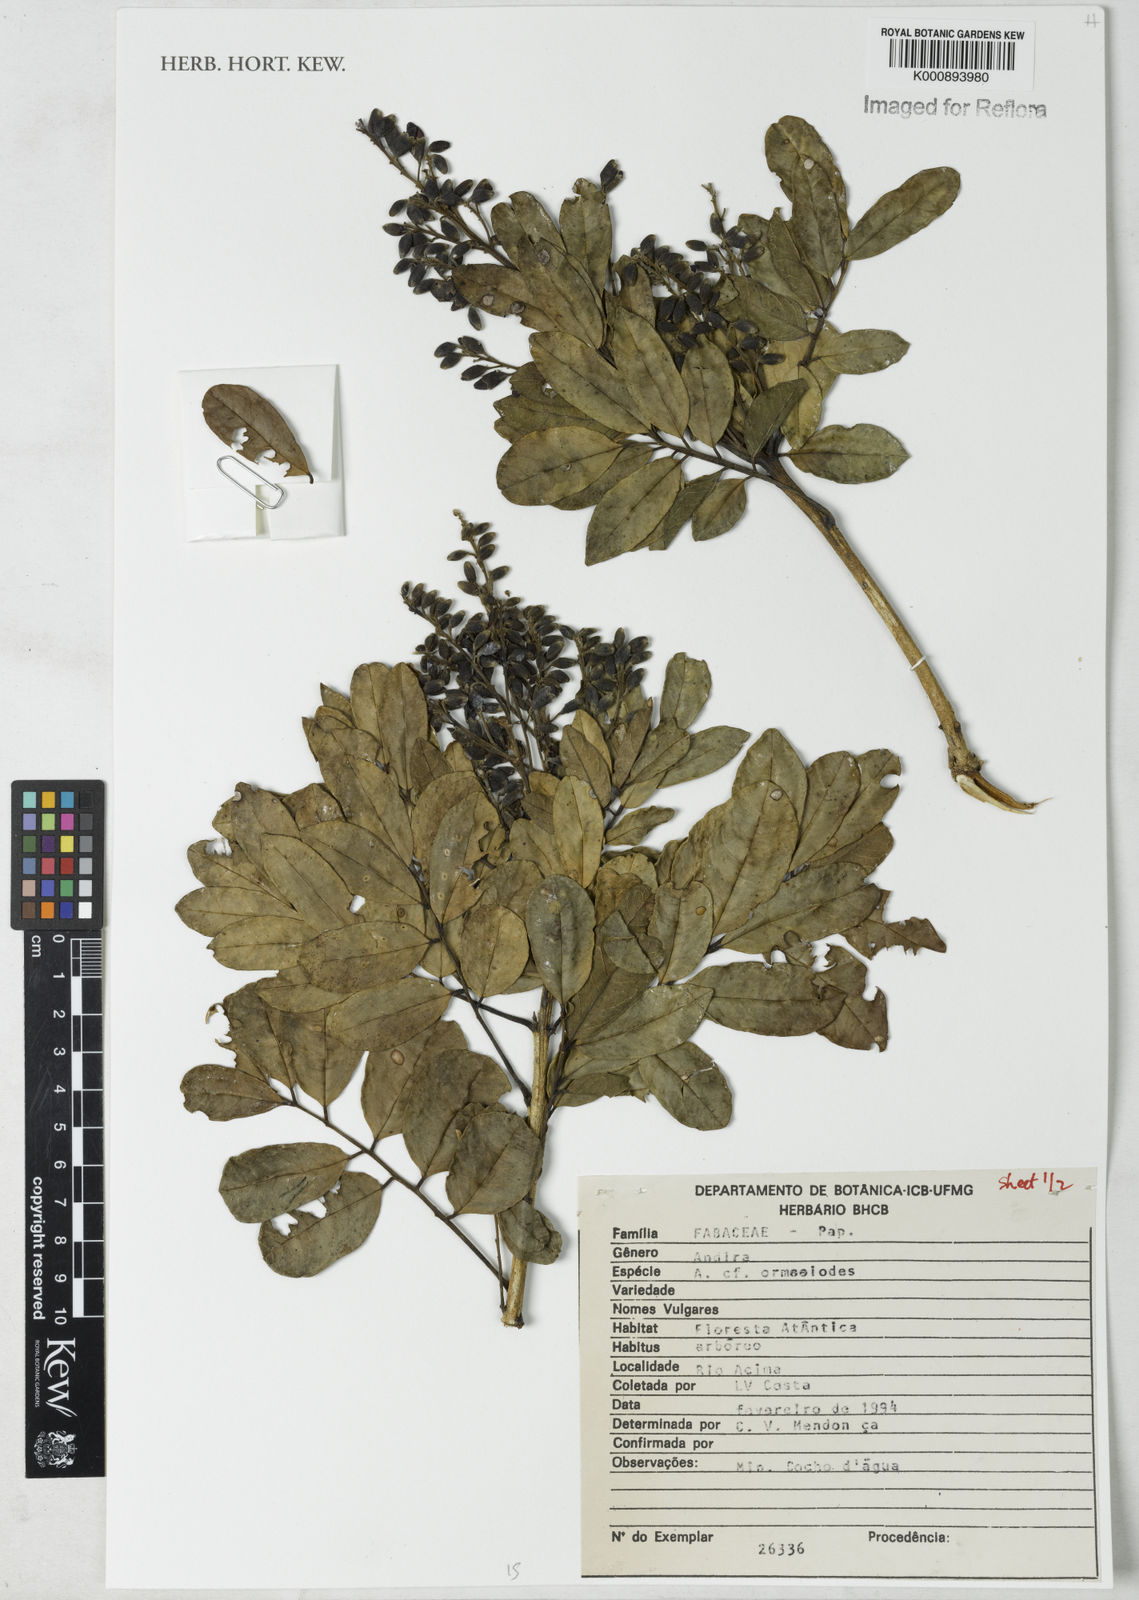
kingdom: Plantae
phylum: Tracheophyta
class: Magnoliopsida
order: Fabales
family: Fabaceae
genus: Andira
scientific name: Andira ormosioides
